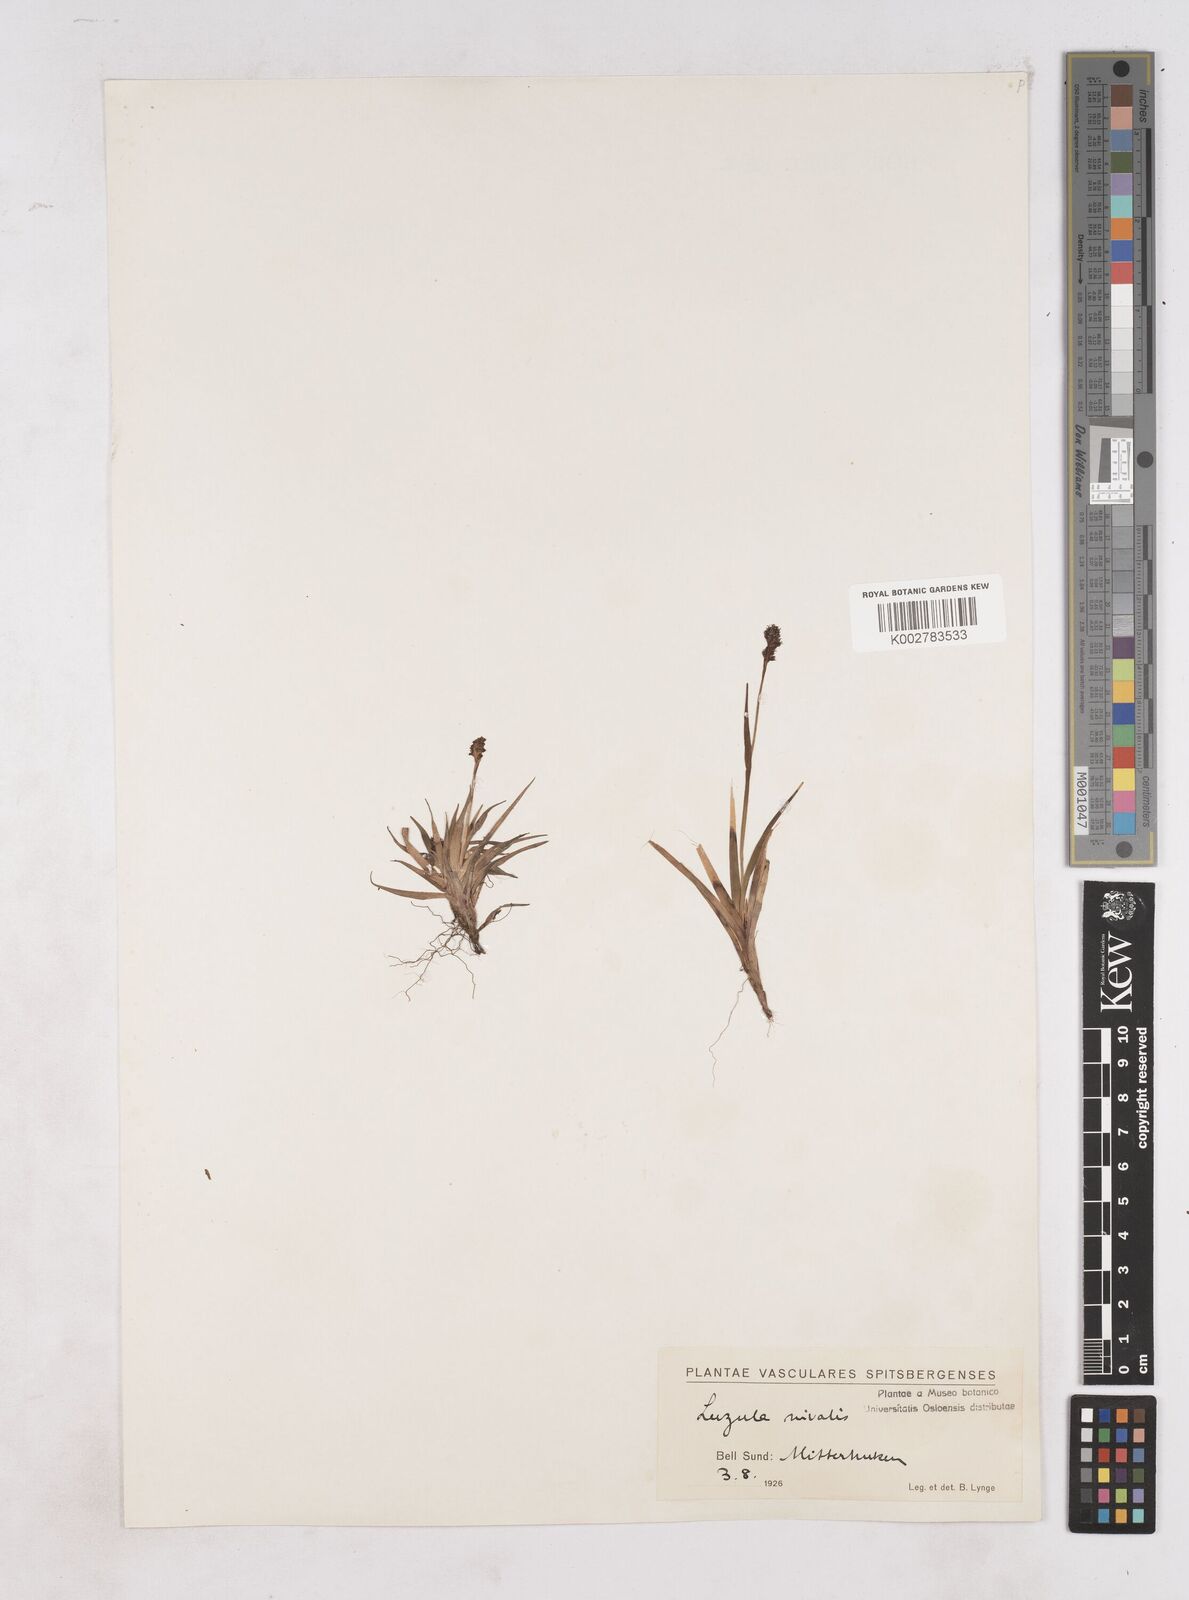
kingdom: Plantae
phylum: Tracheophyta
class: Liliopsida
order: Poales
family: Juncaceae
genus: Luzula
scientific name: Luzula nivalis
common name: Arctic woodrush
